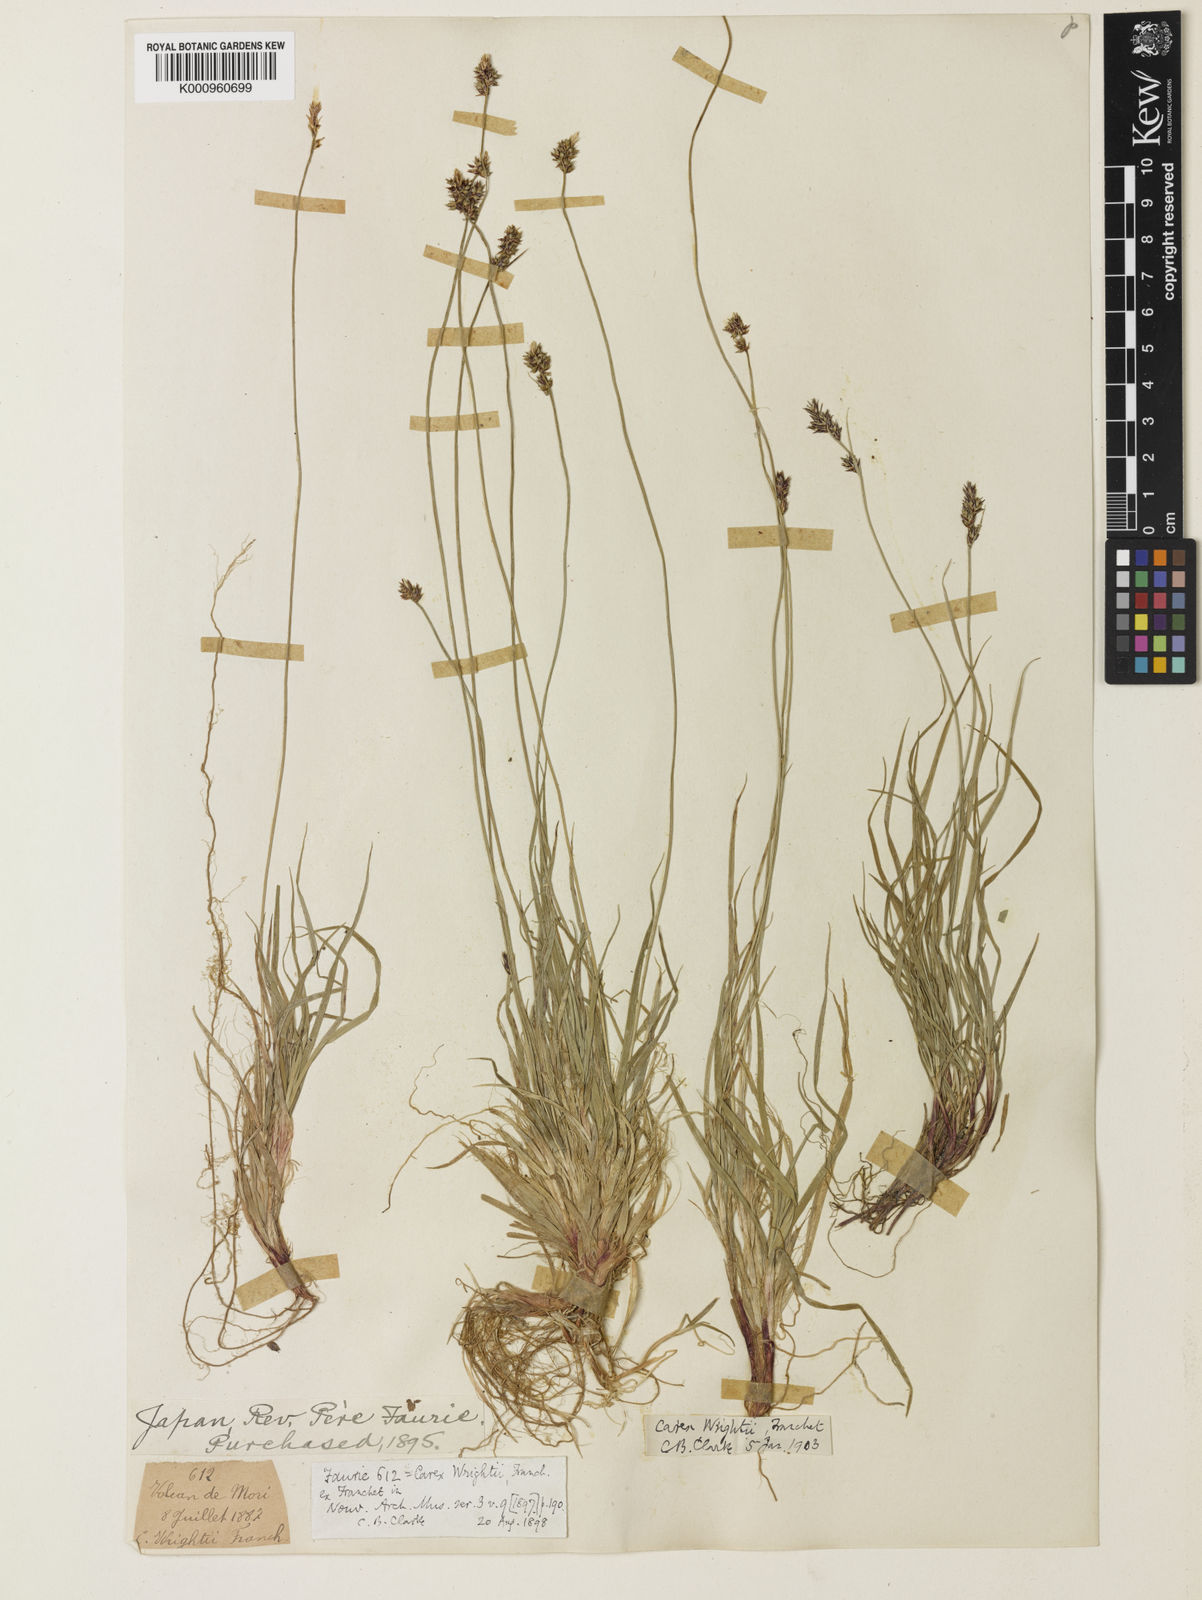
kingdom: Plantae
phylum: Tracheophyta
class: Liliopsida
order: Poales
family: Cyperaceae
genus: Carex
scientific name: Carex oxyandra
